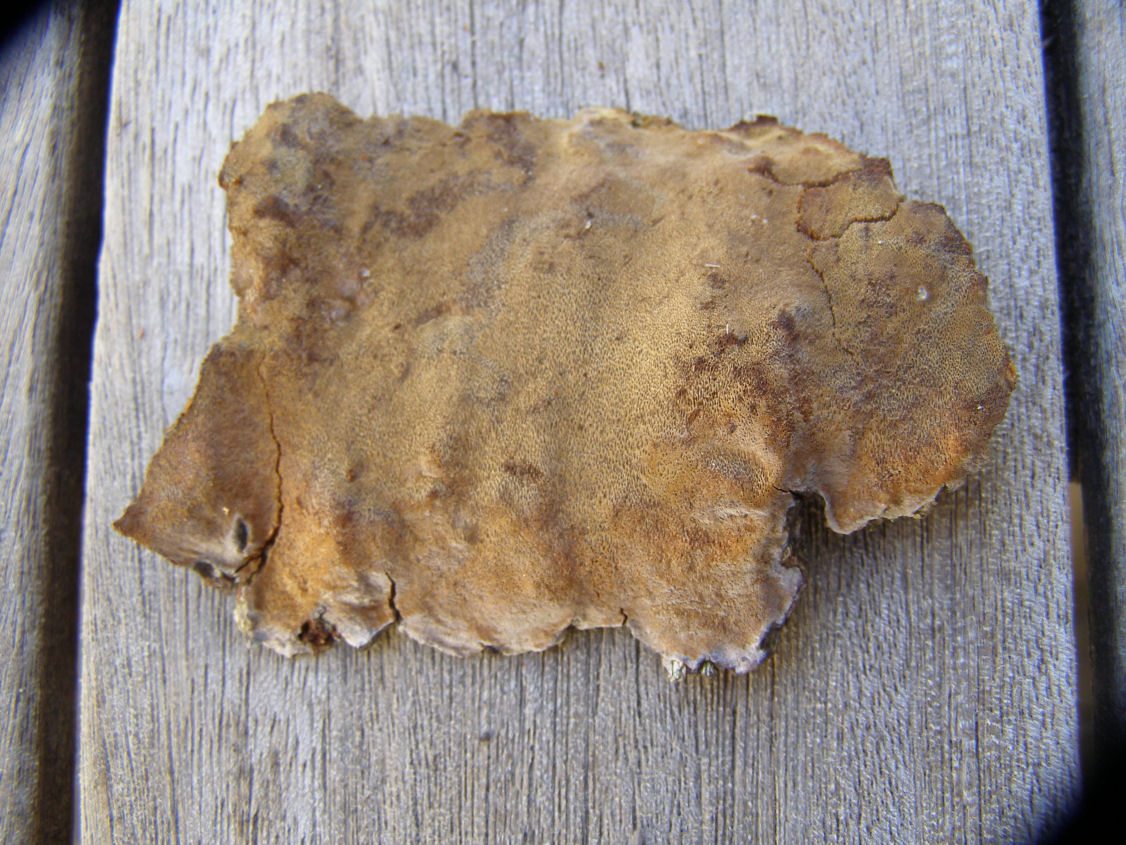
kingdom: Fungi
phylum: Basidiomycota
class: Agaricomycetes
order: Hymenochaetales
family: Hymenochaetaceae
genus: Phellinus
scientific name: Phellinus laevigatus
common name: glat ildporesvamp
